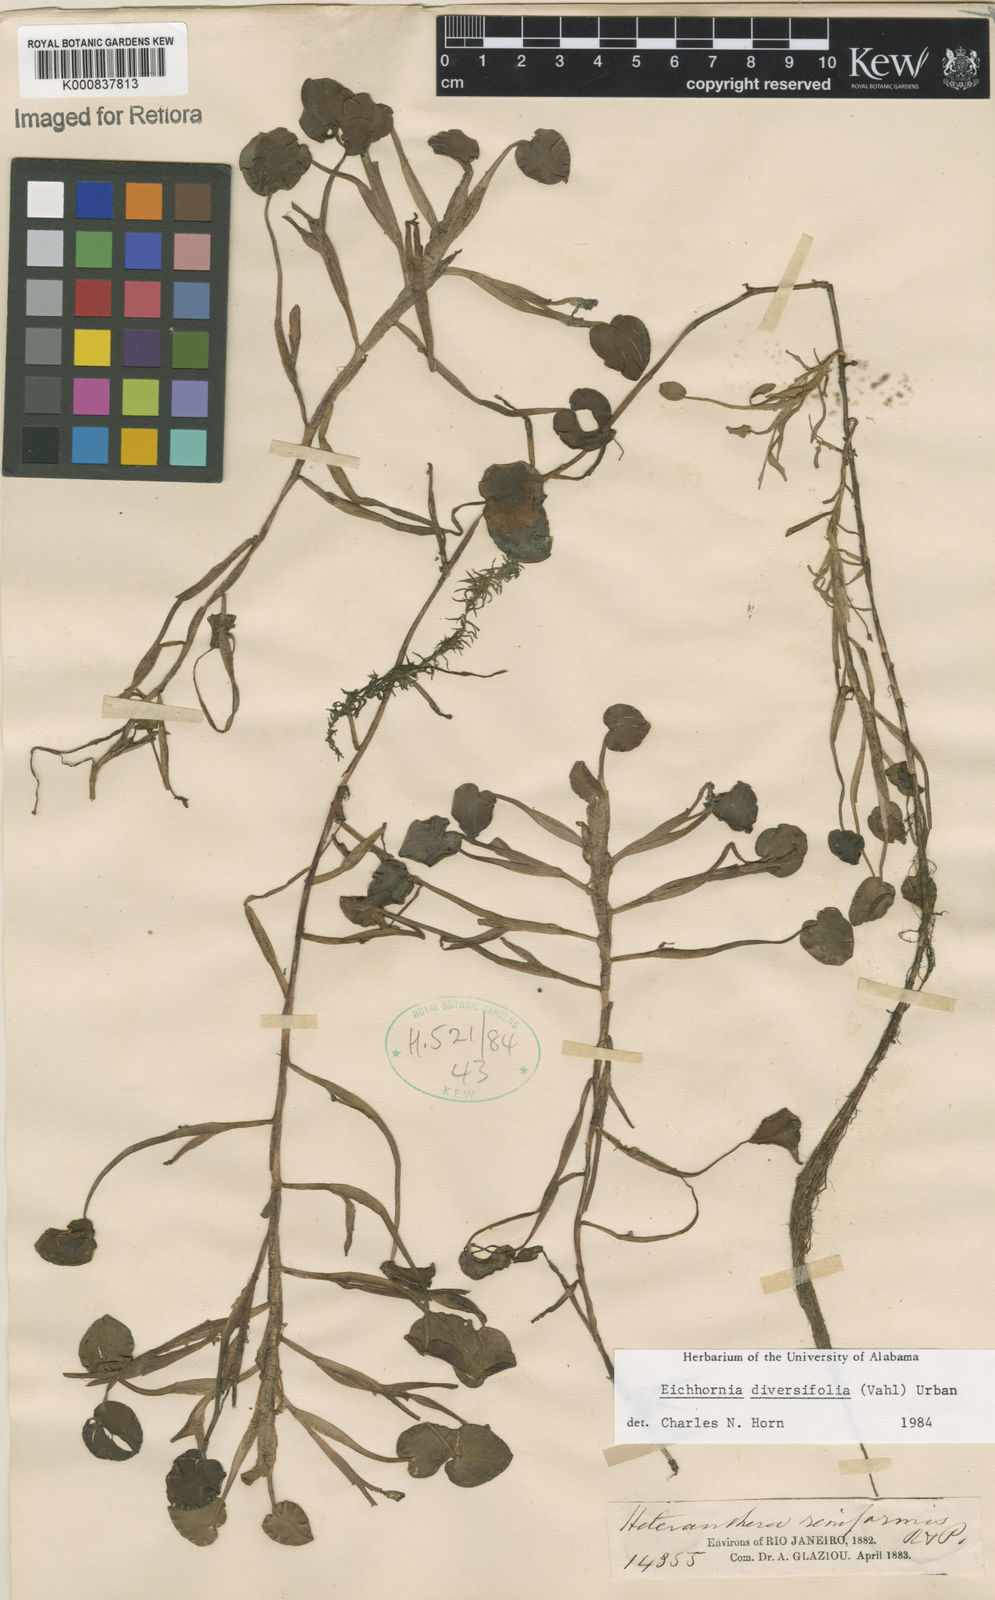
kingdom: Plantae
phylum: Tracheophyta
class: Liliopsida
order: Commelinales
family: Pontederiaceae
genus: Pontederia
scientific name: Pontederia diversifolia
